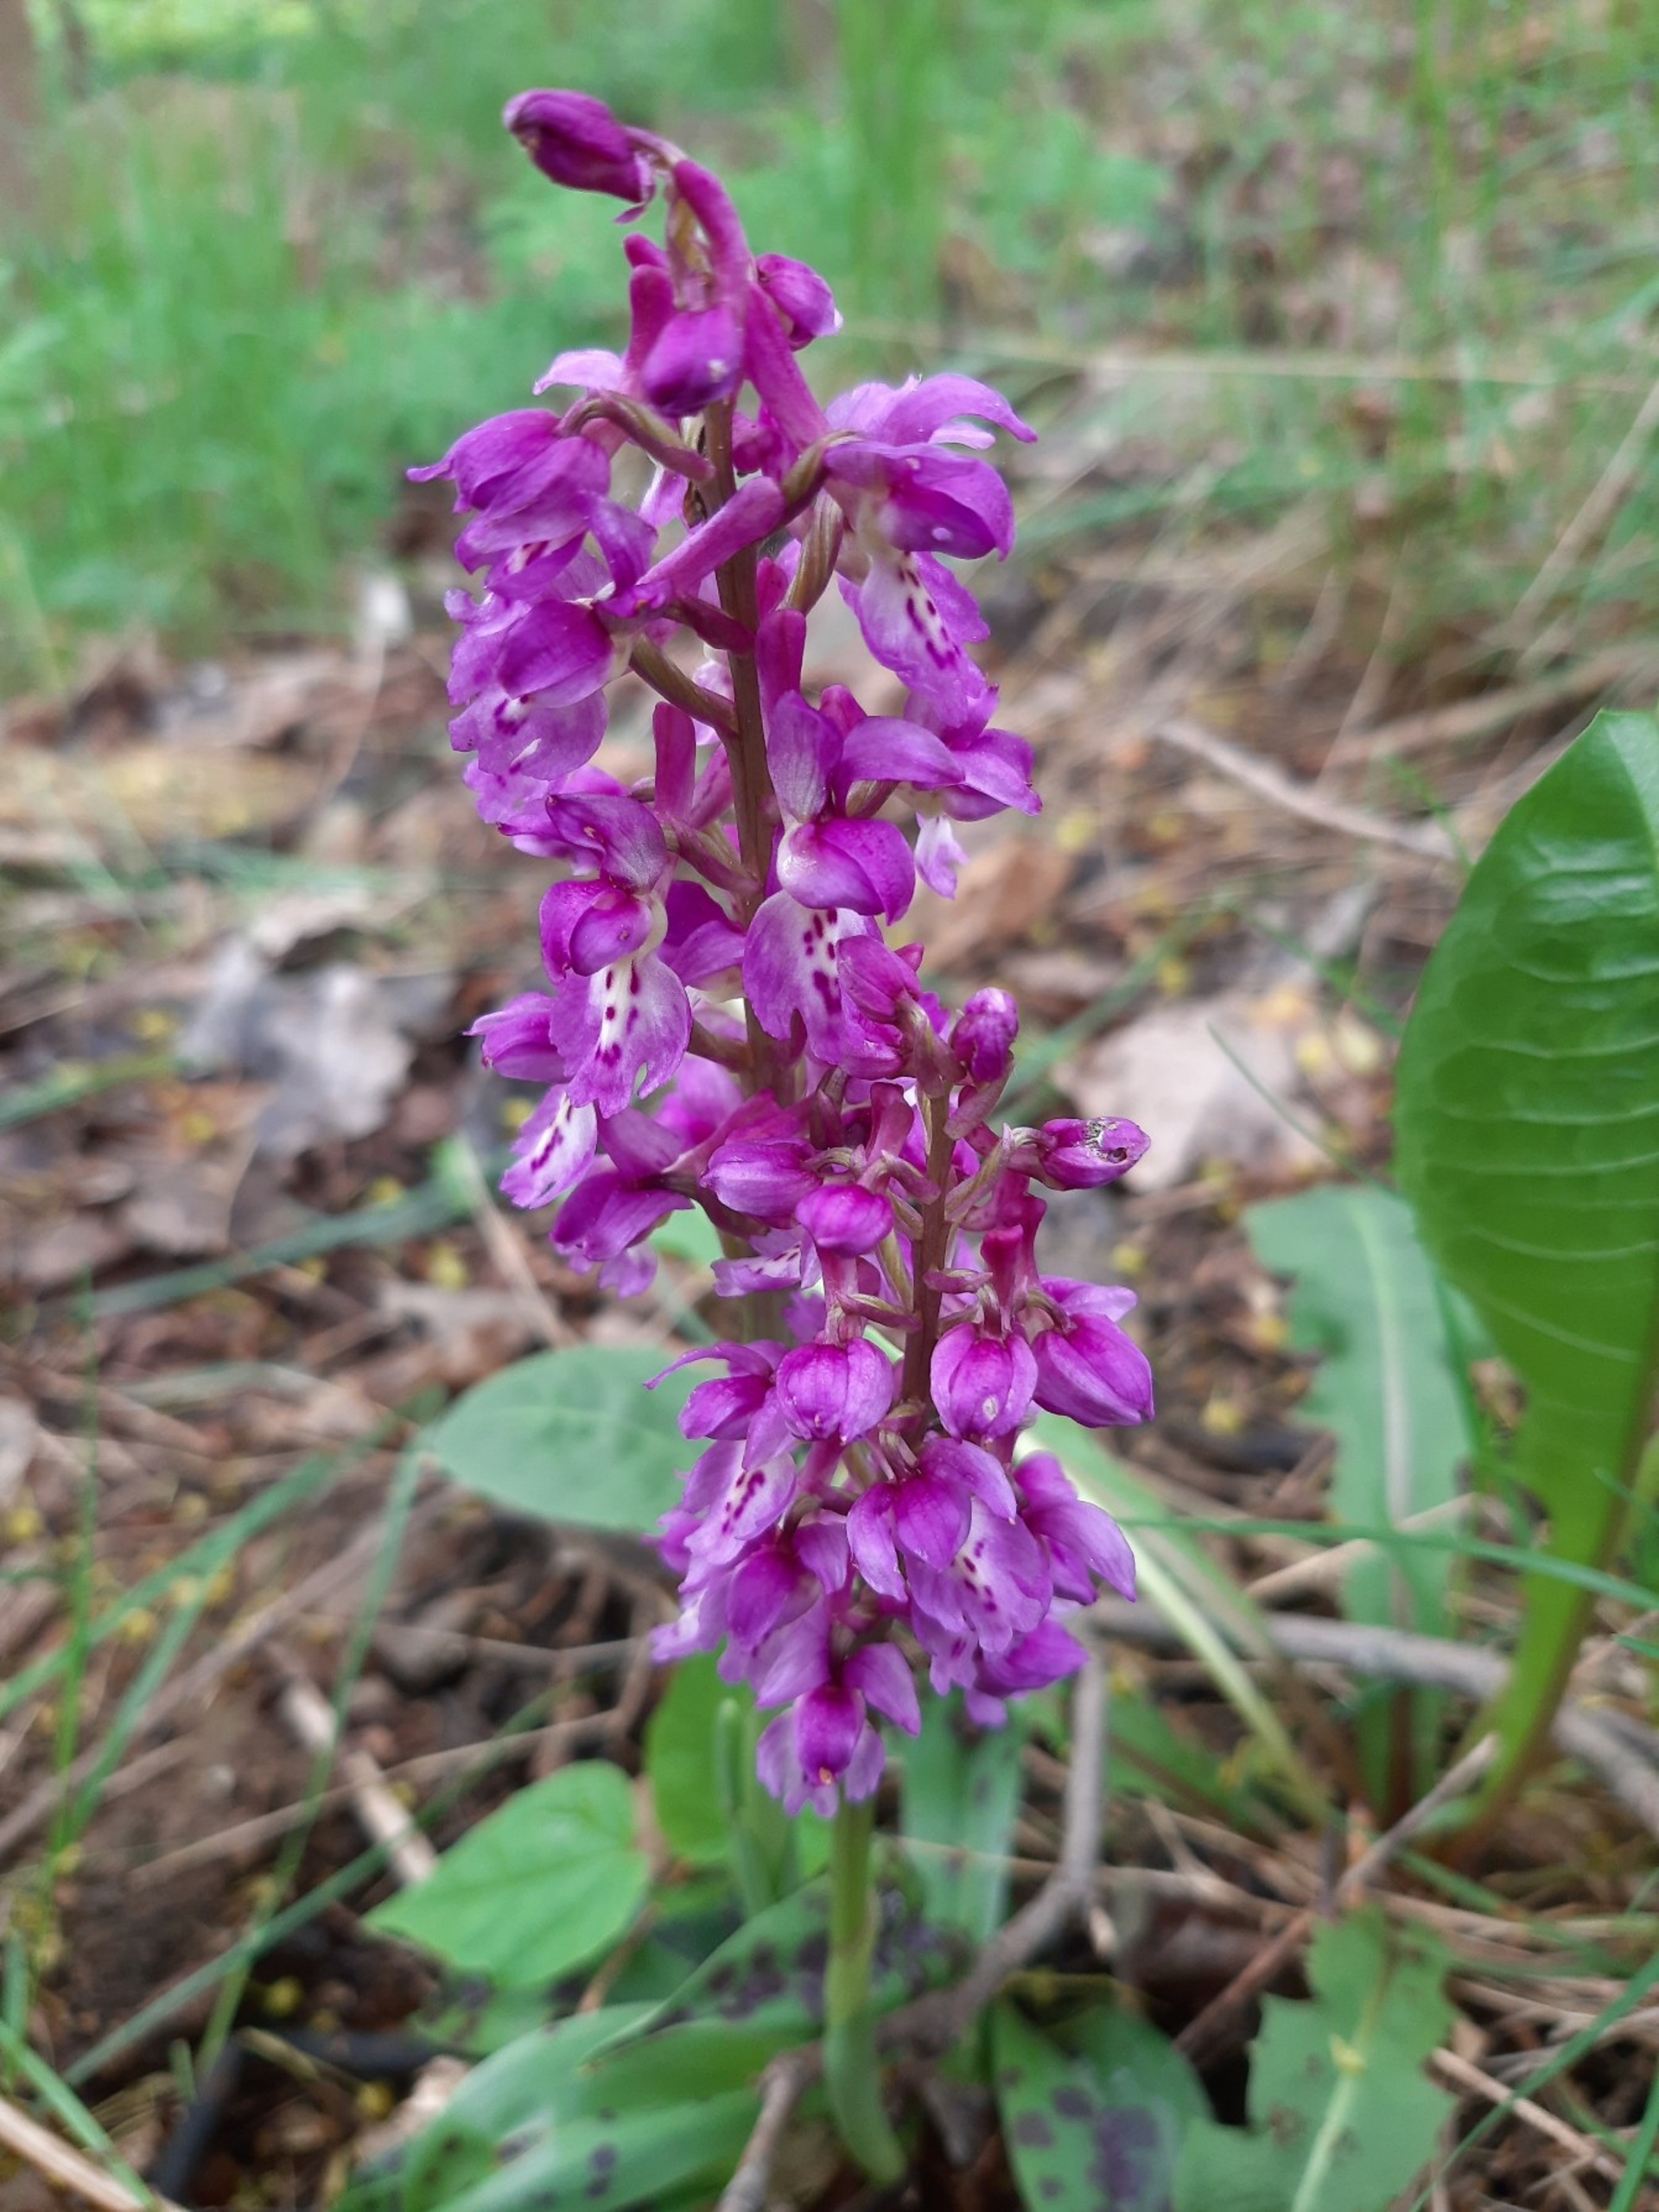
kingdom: Plantae
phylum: Tracheophyta
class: Liliopsida
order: Asparagales
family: Orchidaceae
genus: Orchis
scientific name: Orchis mascula
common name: Tyndakset gøgeurt
